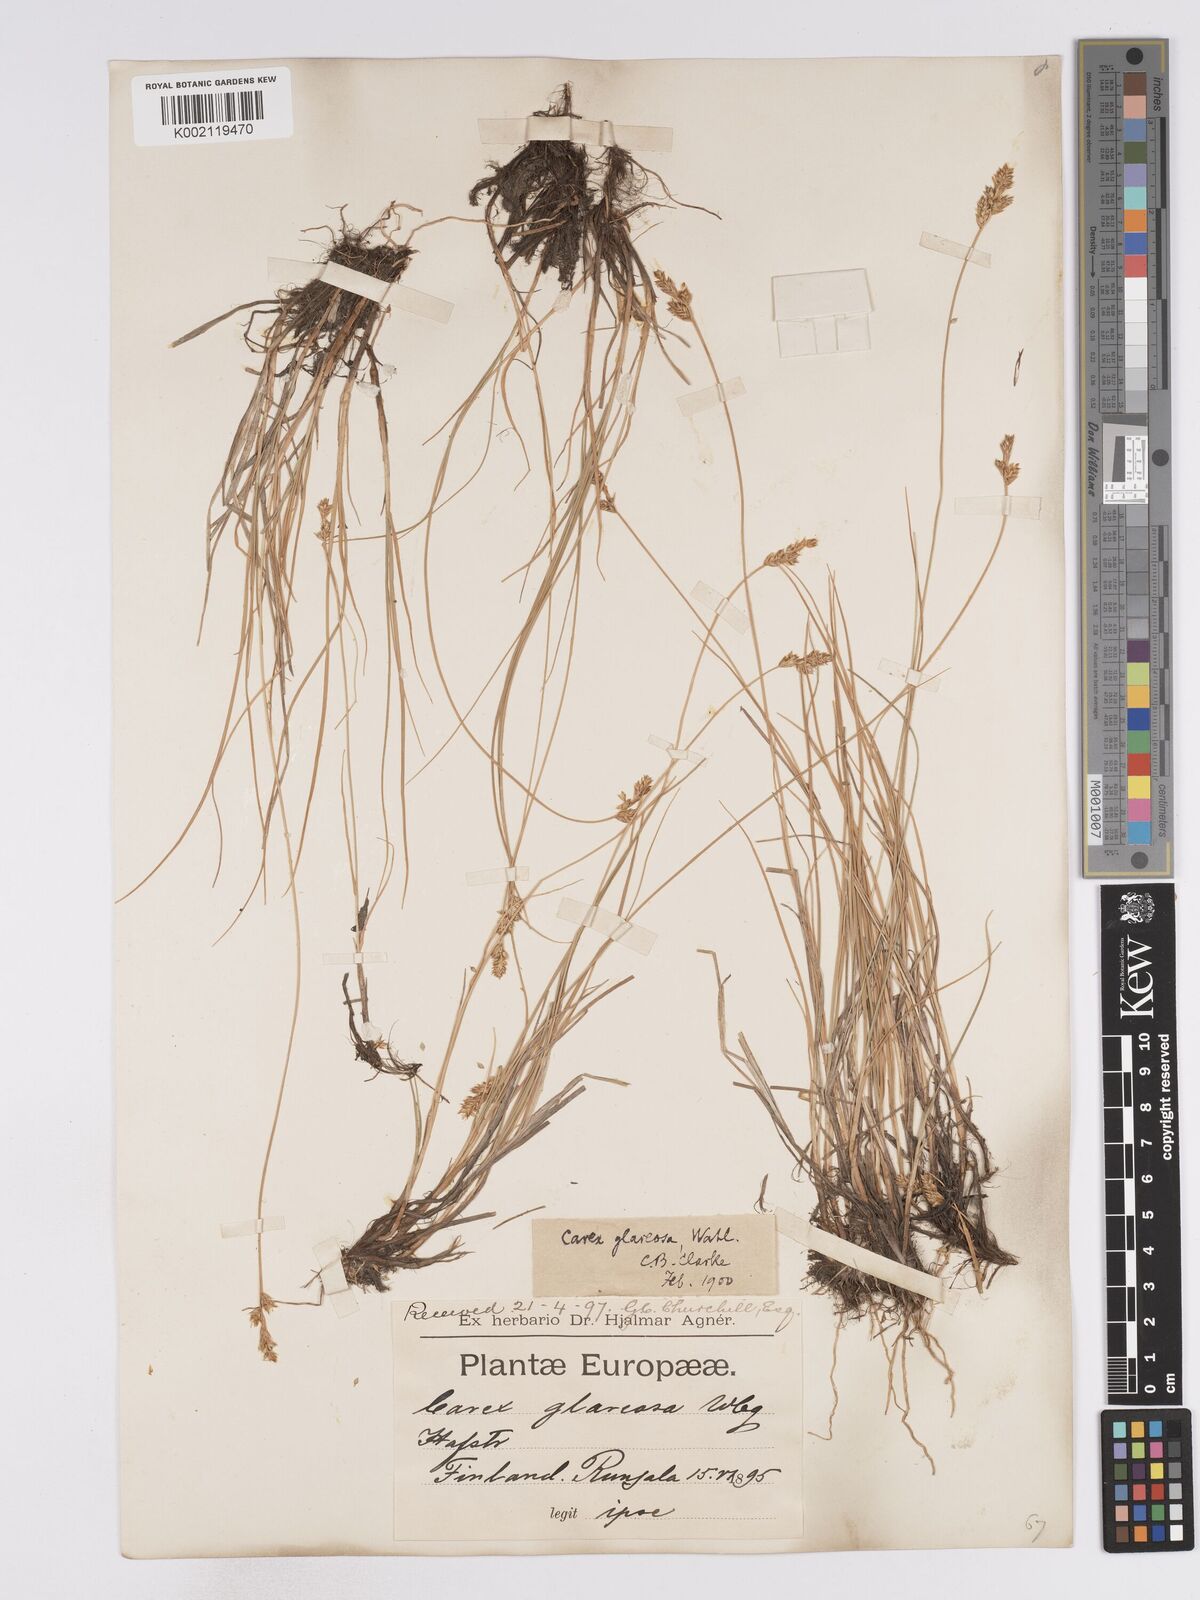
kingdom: Plantae
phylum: Tracheophyta
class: Liliopsida
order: Poales
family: Cyperaceae
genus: Carex
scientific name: Carex glareosa
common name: Clustered sedge
